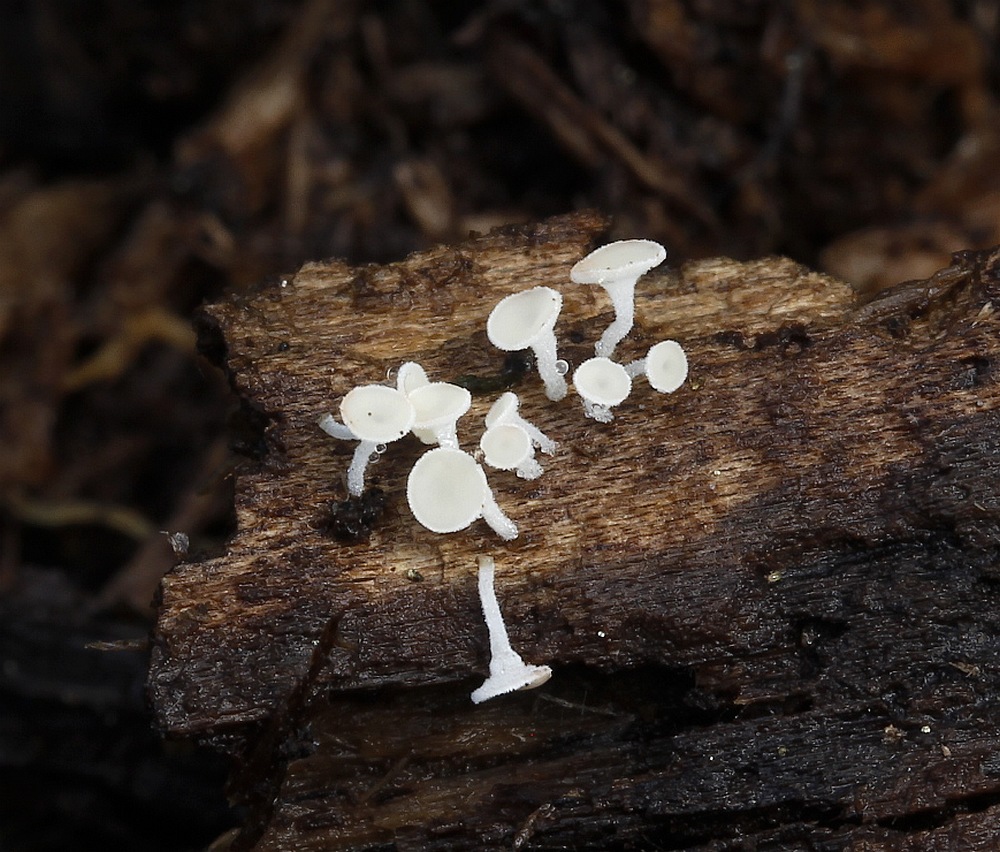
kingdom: Fungi
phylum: Ascomycota
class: Leotiomycetes
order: Helotiales
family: Lachnaceae
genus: Lachnum
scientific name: Lachnum
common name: frynseskive
